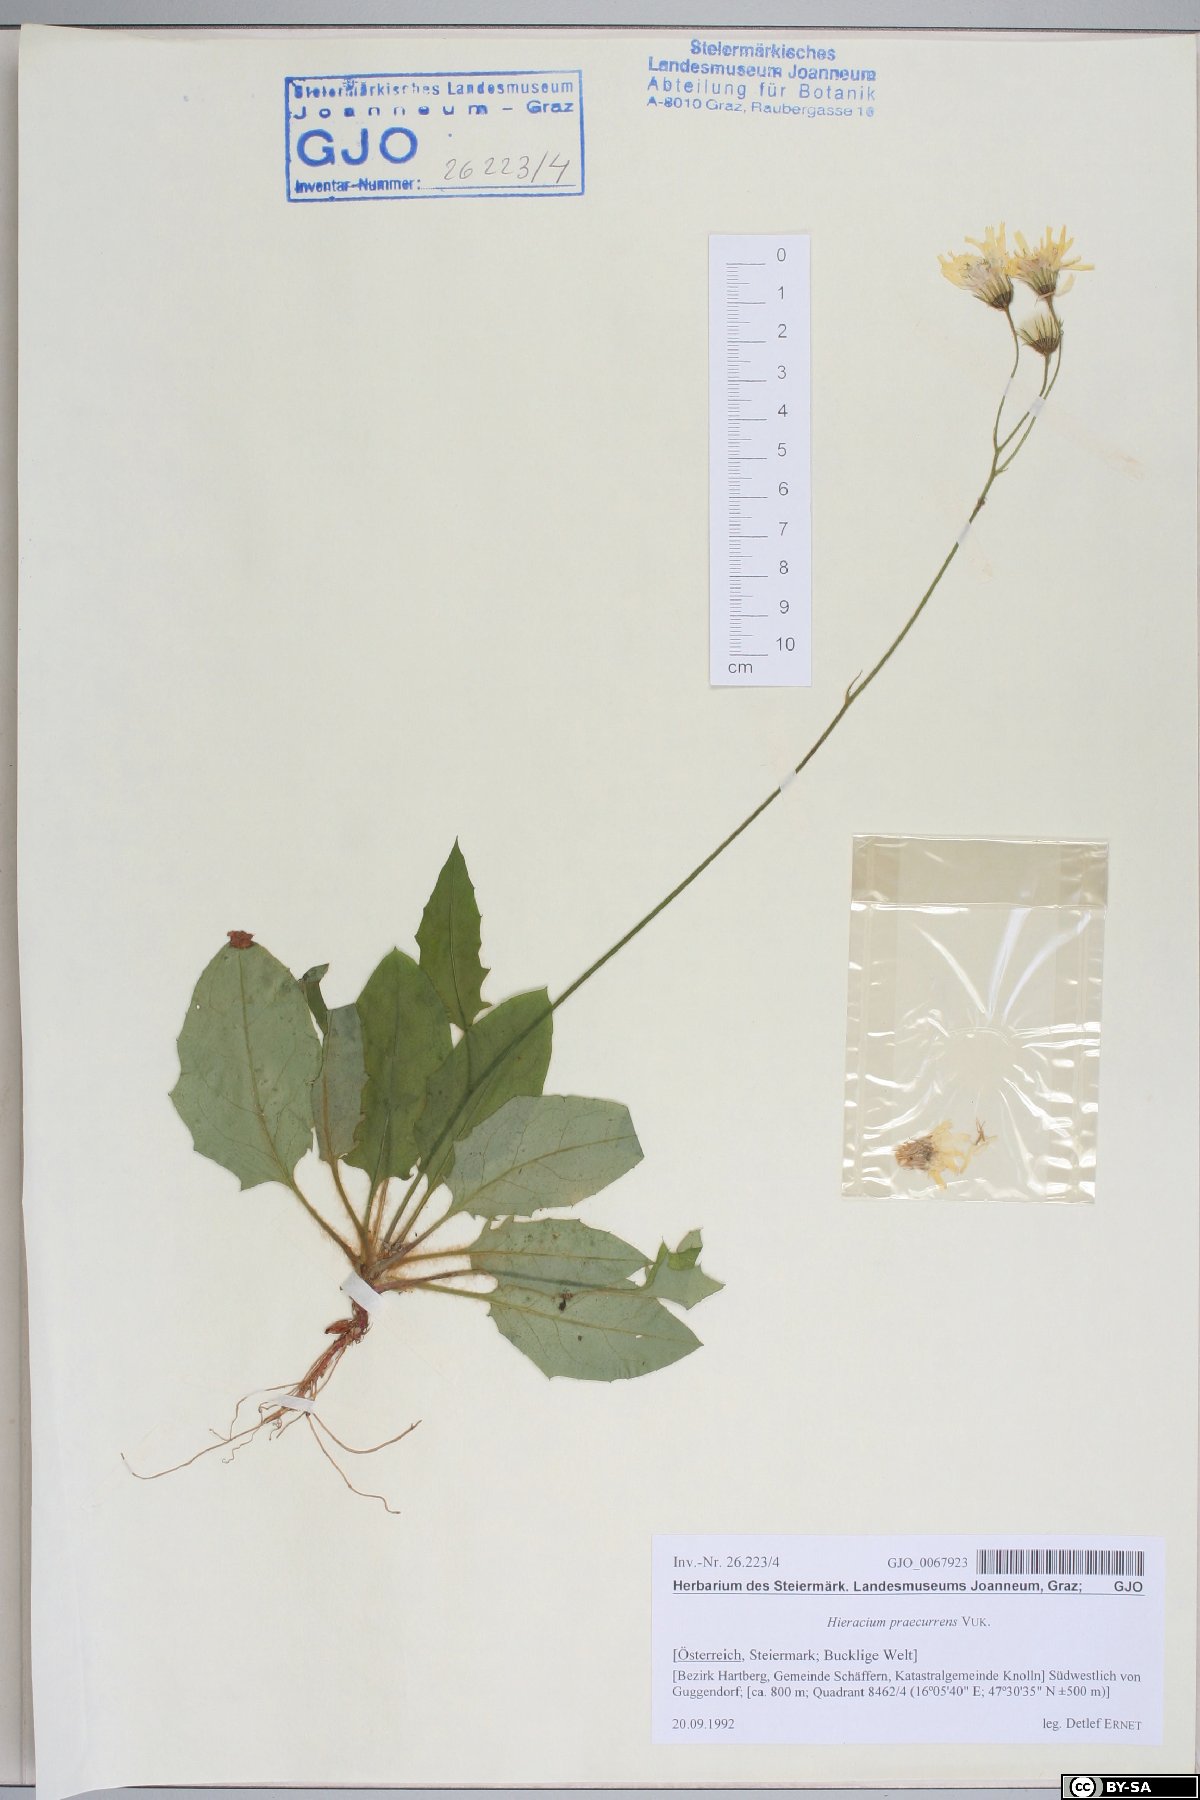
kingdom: Plantae
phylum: Tracheophyta
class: Magnoliopsida
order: Asterales
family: Asteraceae
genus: Hieracium
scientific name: Hieracium rotundatum
